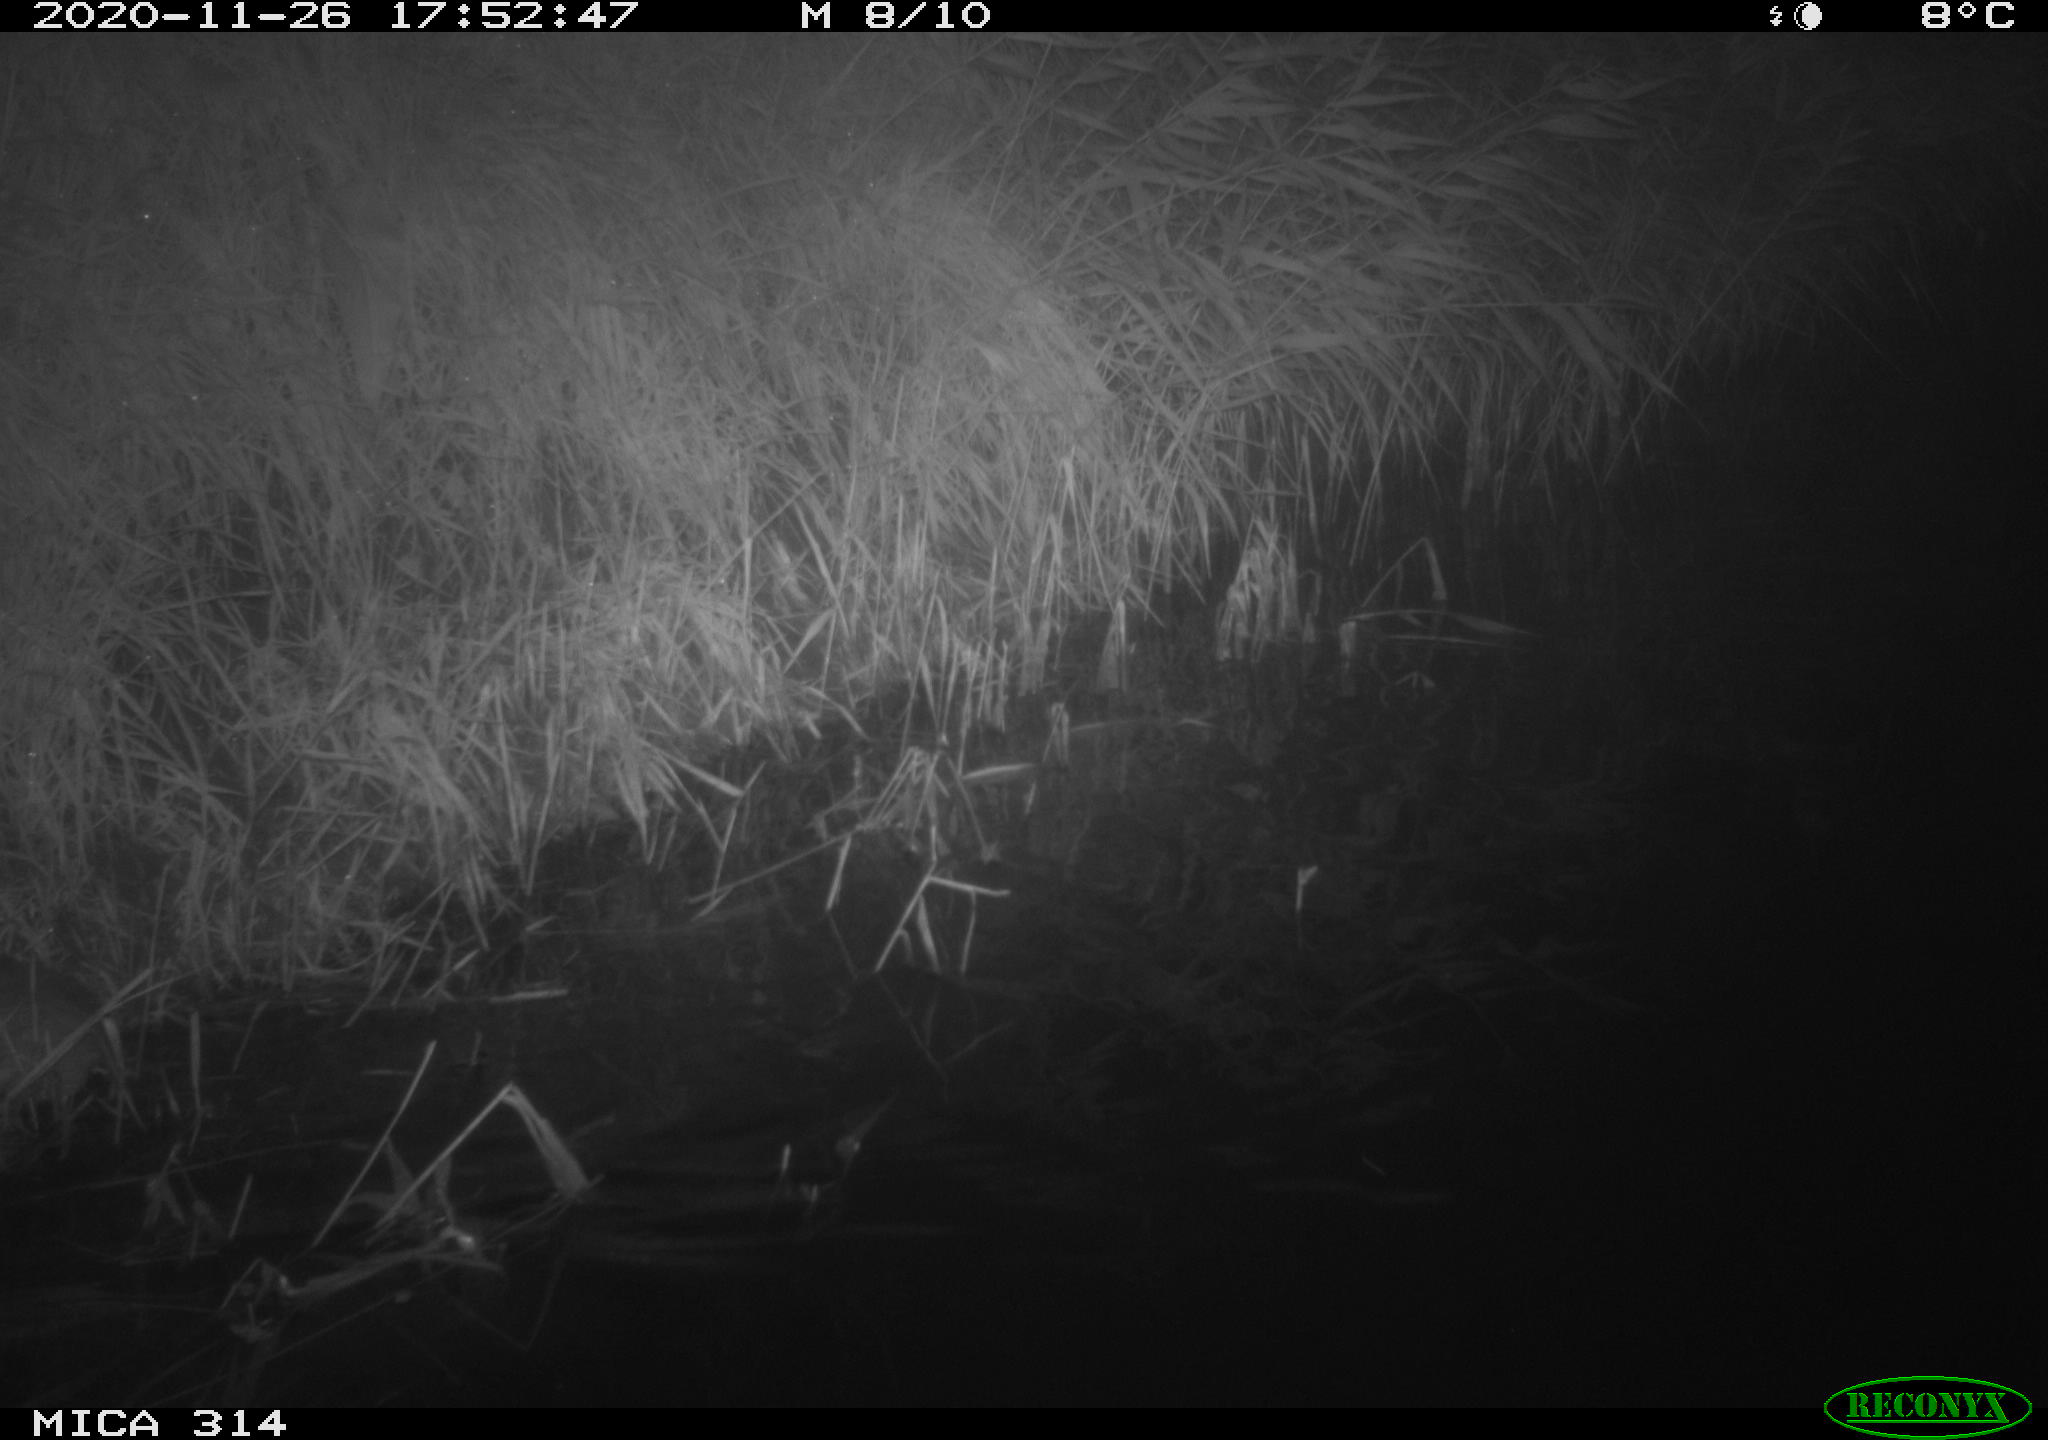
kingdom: Animalia
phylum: Chordata
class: Mammalia
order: Rodentia
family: Muridae
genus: Rattus
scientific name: Rattus norvegicus
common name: Brown rat
